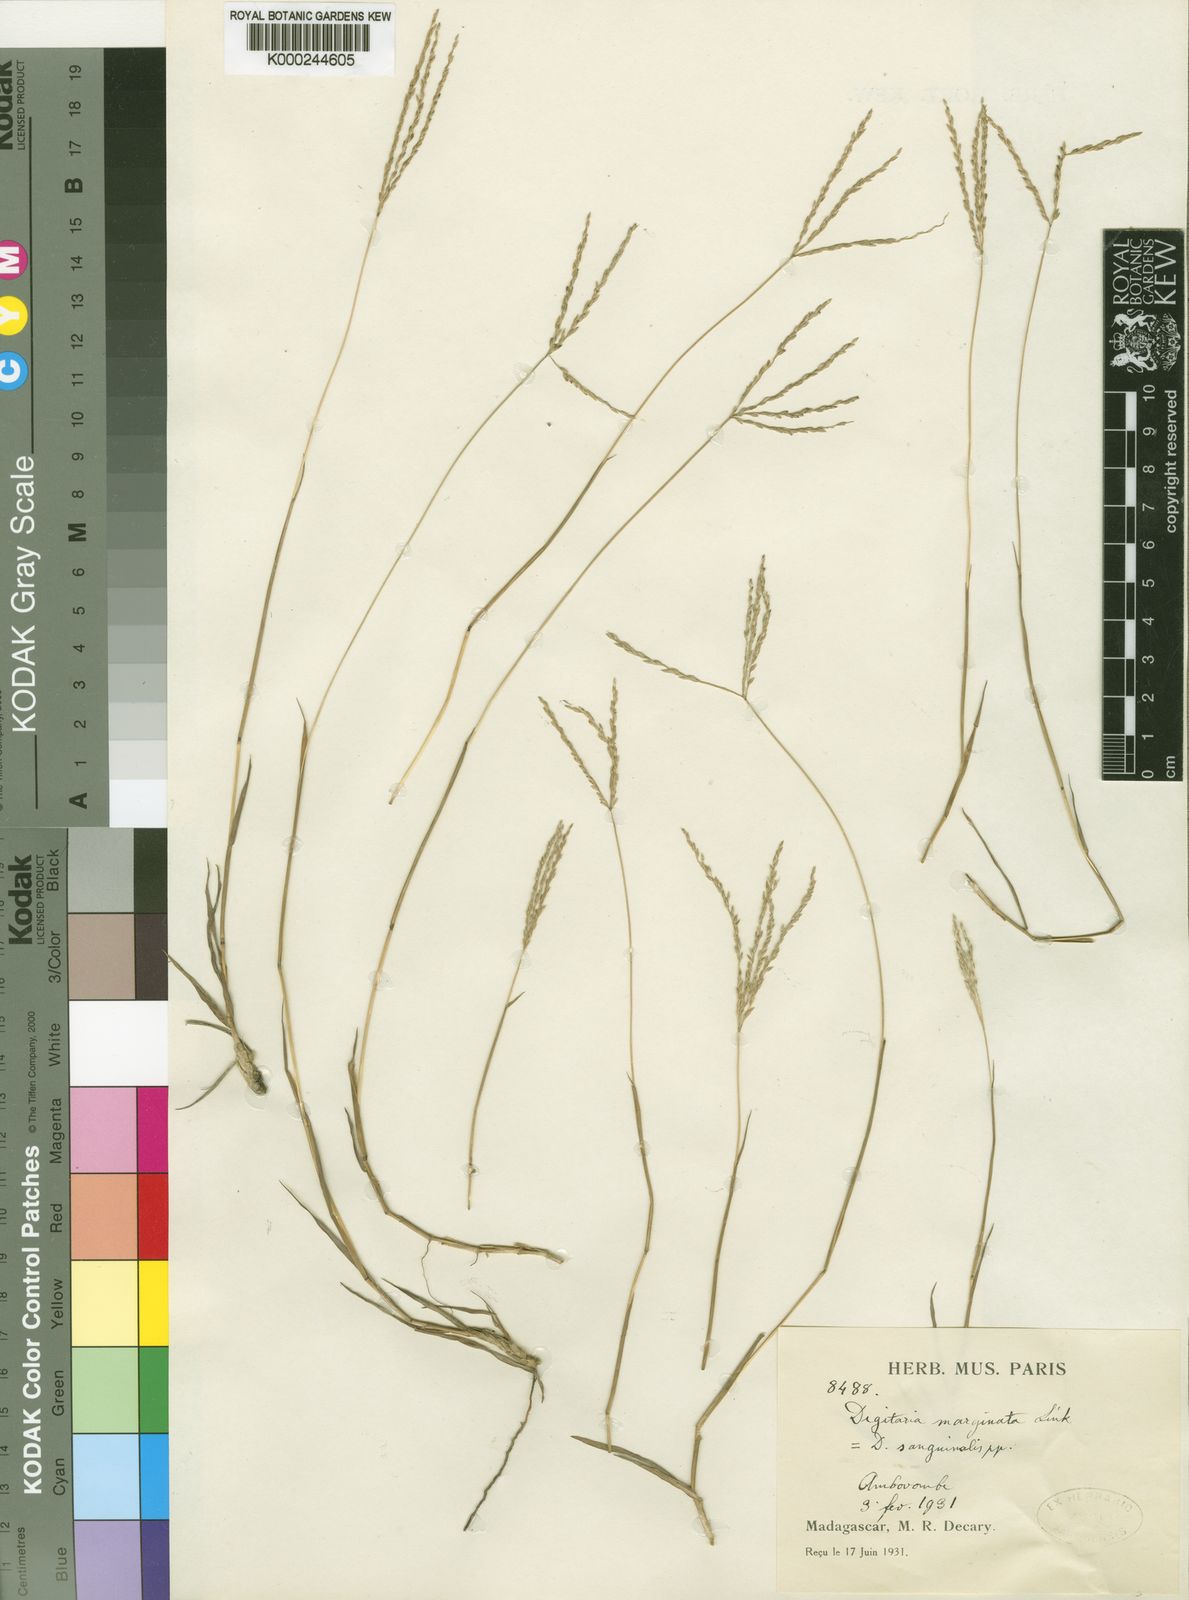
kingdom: Plantae
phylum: Tracheophyta
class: Liliopsida
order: Poales
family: Poaceae
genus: Digitaria
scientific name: Digitaria psammophila
